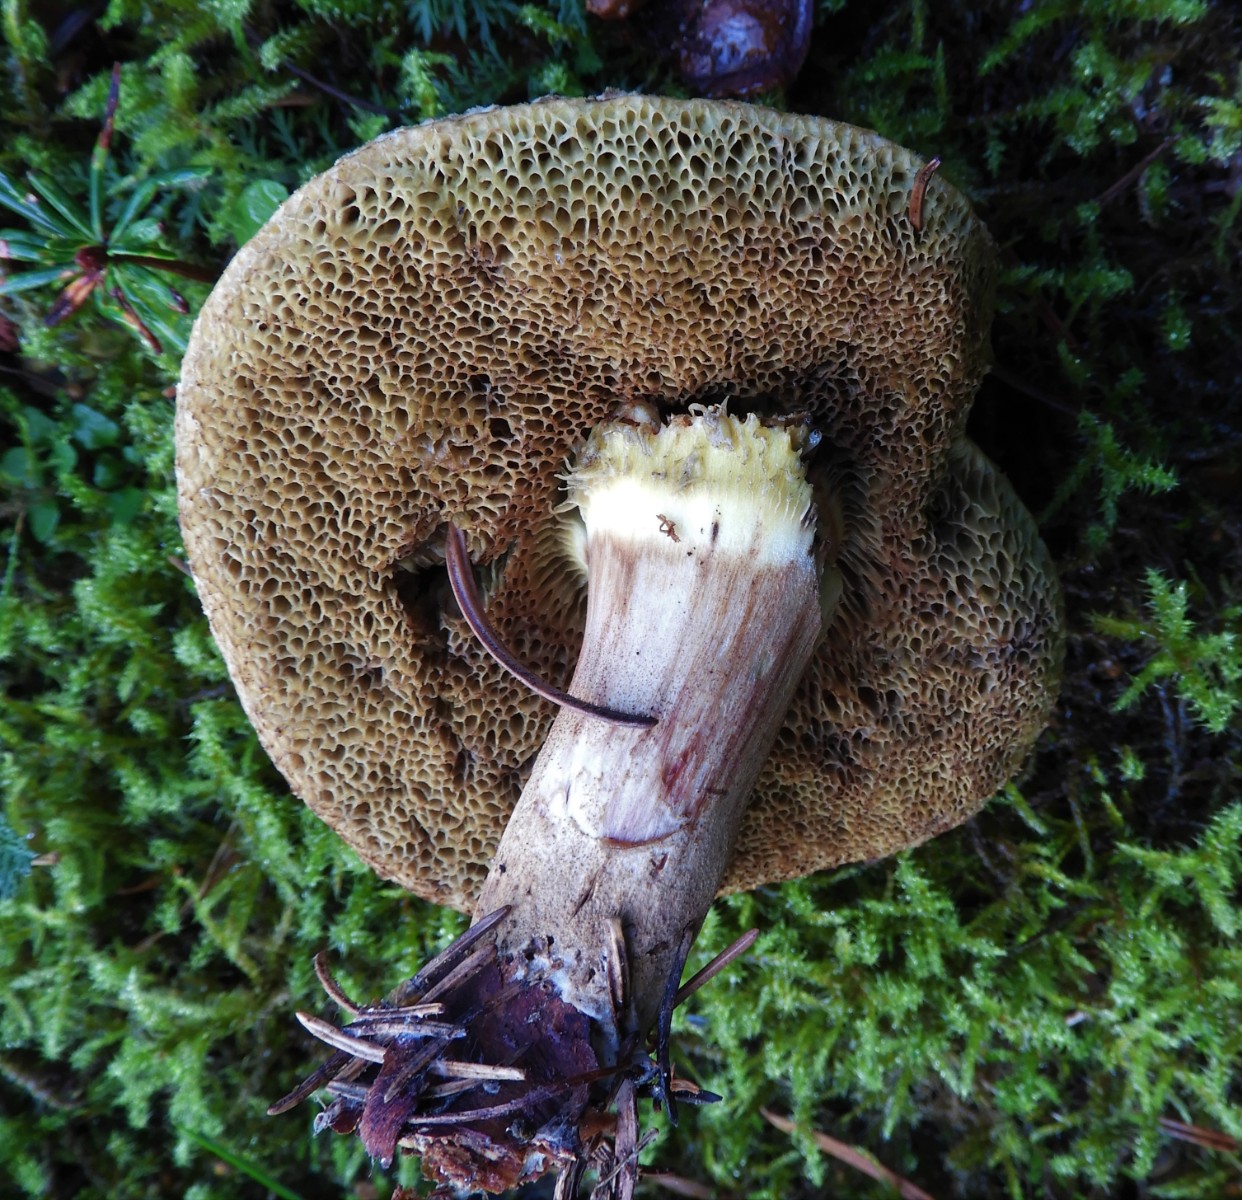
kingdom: Fungi
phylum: Basidiomycota
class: Agaricomycetes
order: Boletales
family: Boletaceae
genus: Xerocomellus
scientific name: Xerocomellus porosporus
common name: hvidsprukken rørhat
